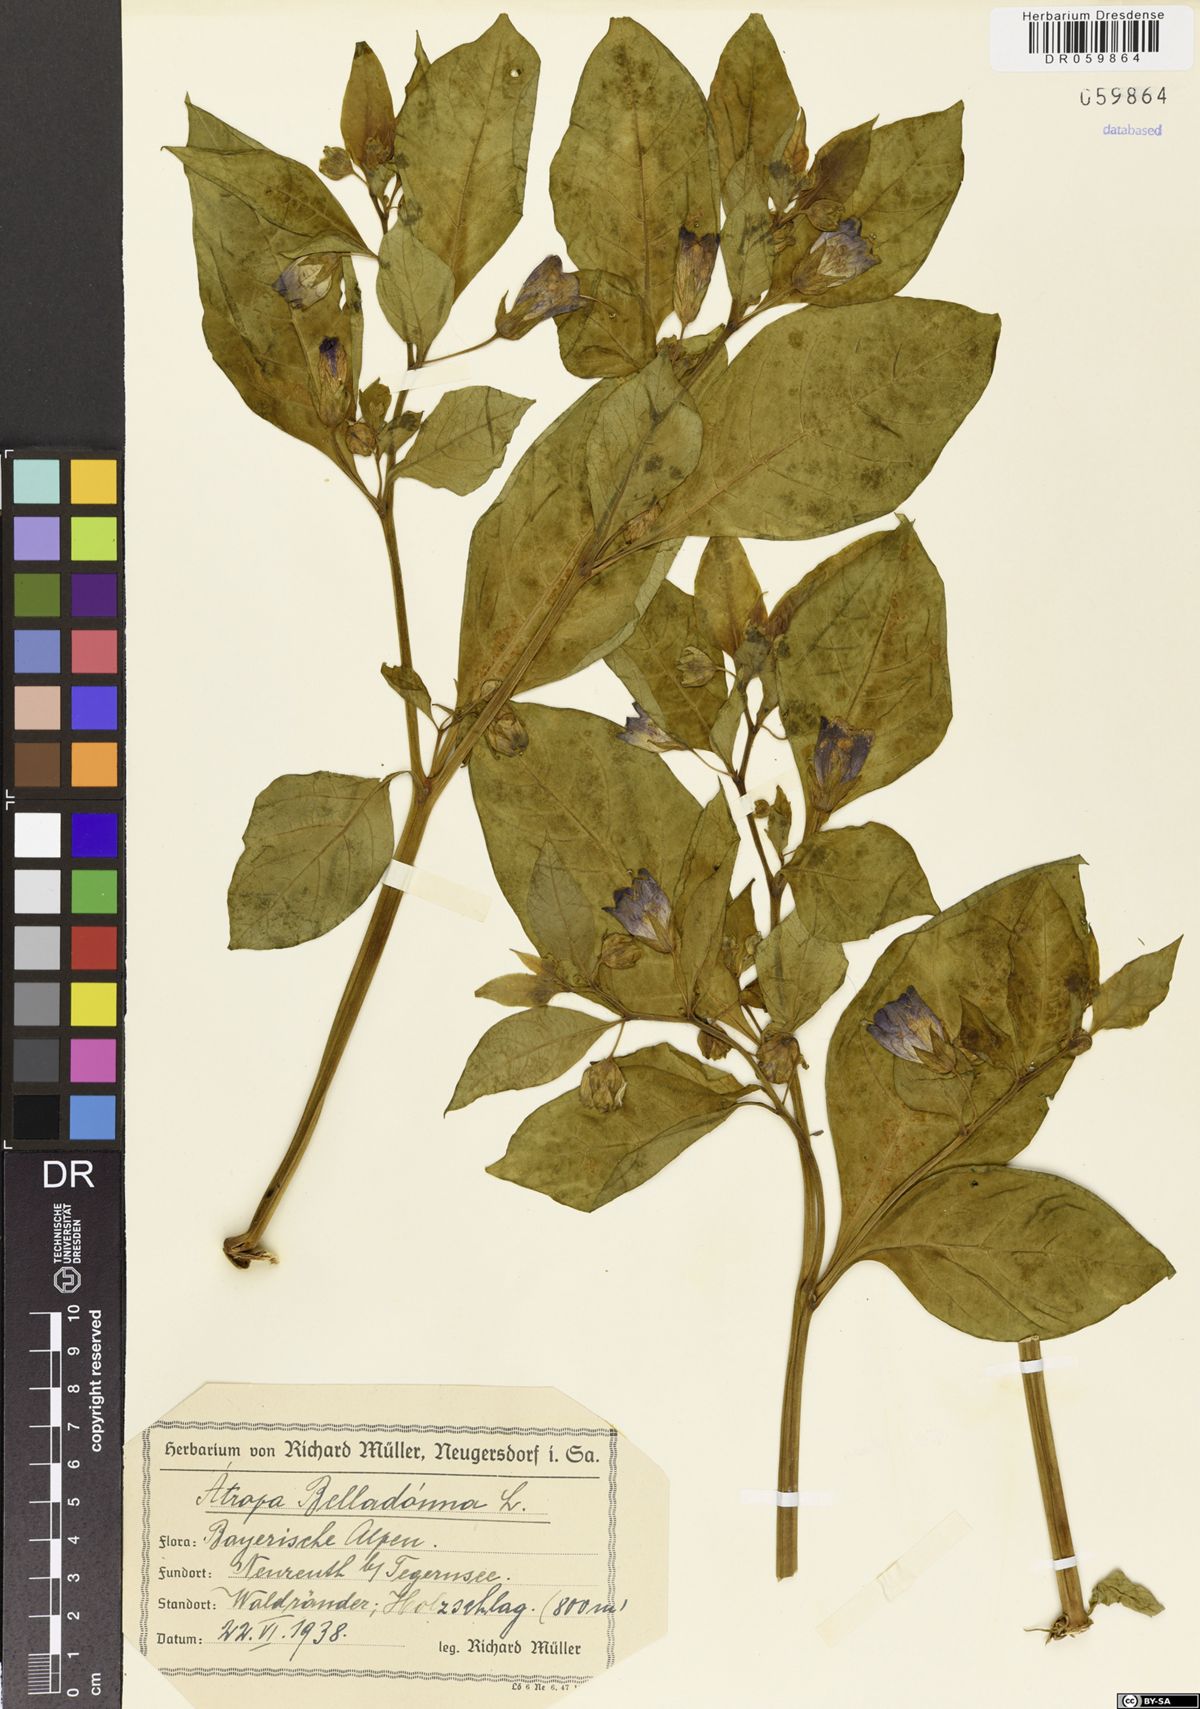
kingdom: Plantae
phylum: Tracheophyta
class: Magnoliopsida
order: Solanales
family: Solanaceae
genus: Atropa
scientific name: Atropa belladonna
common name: Deadly nightshade
